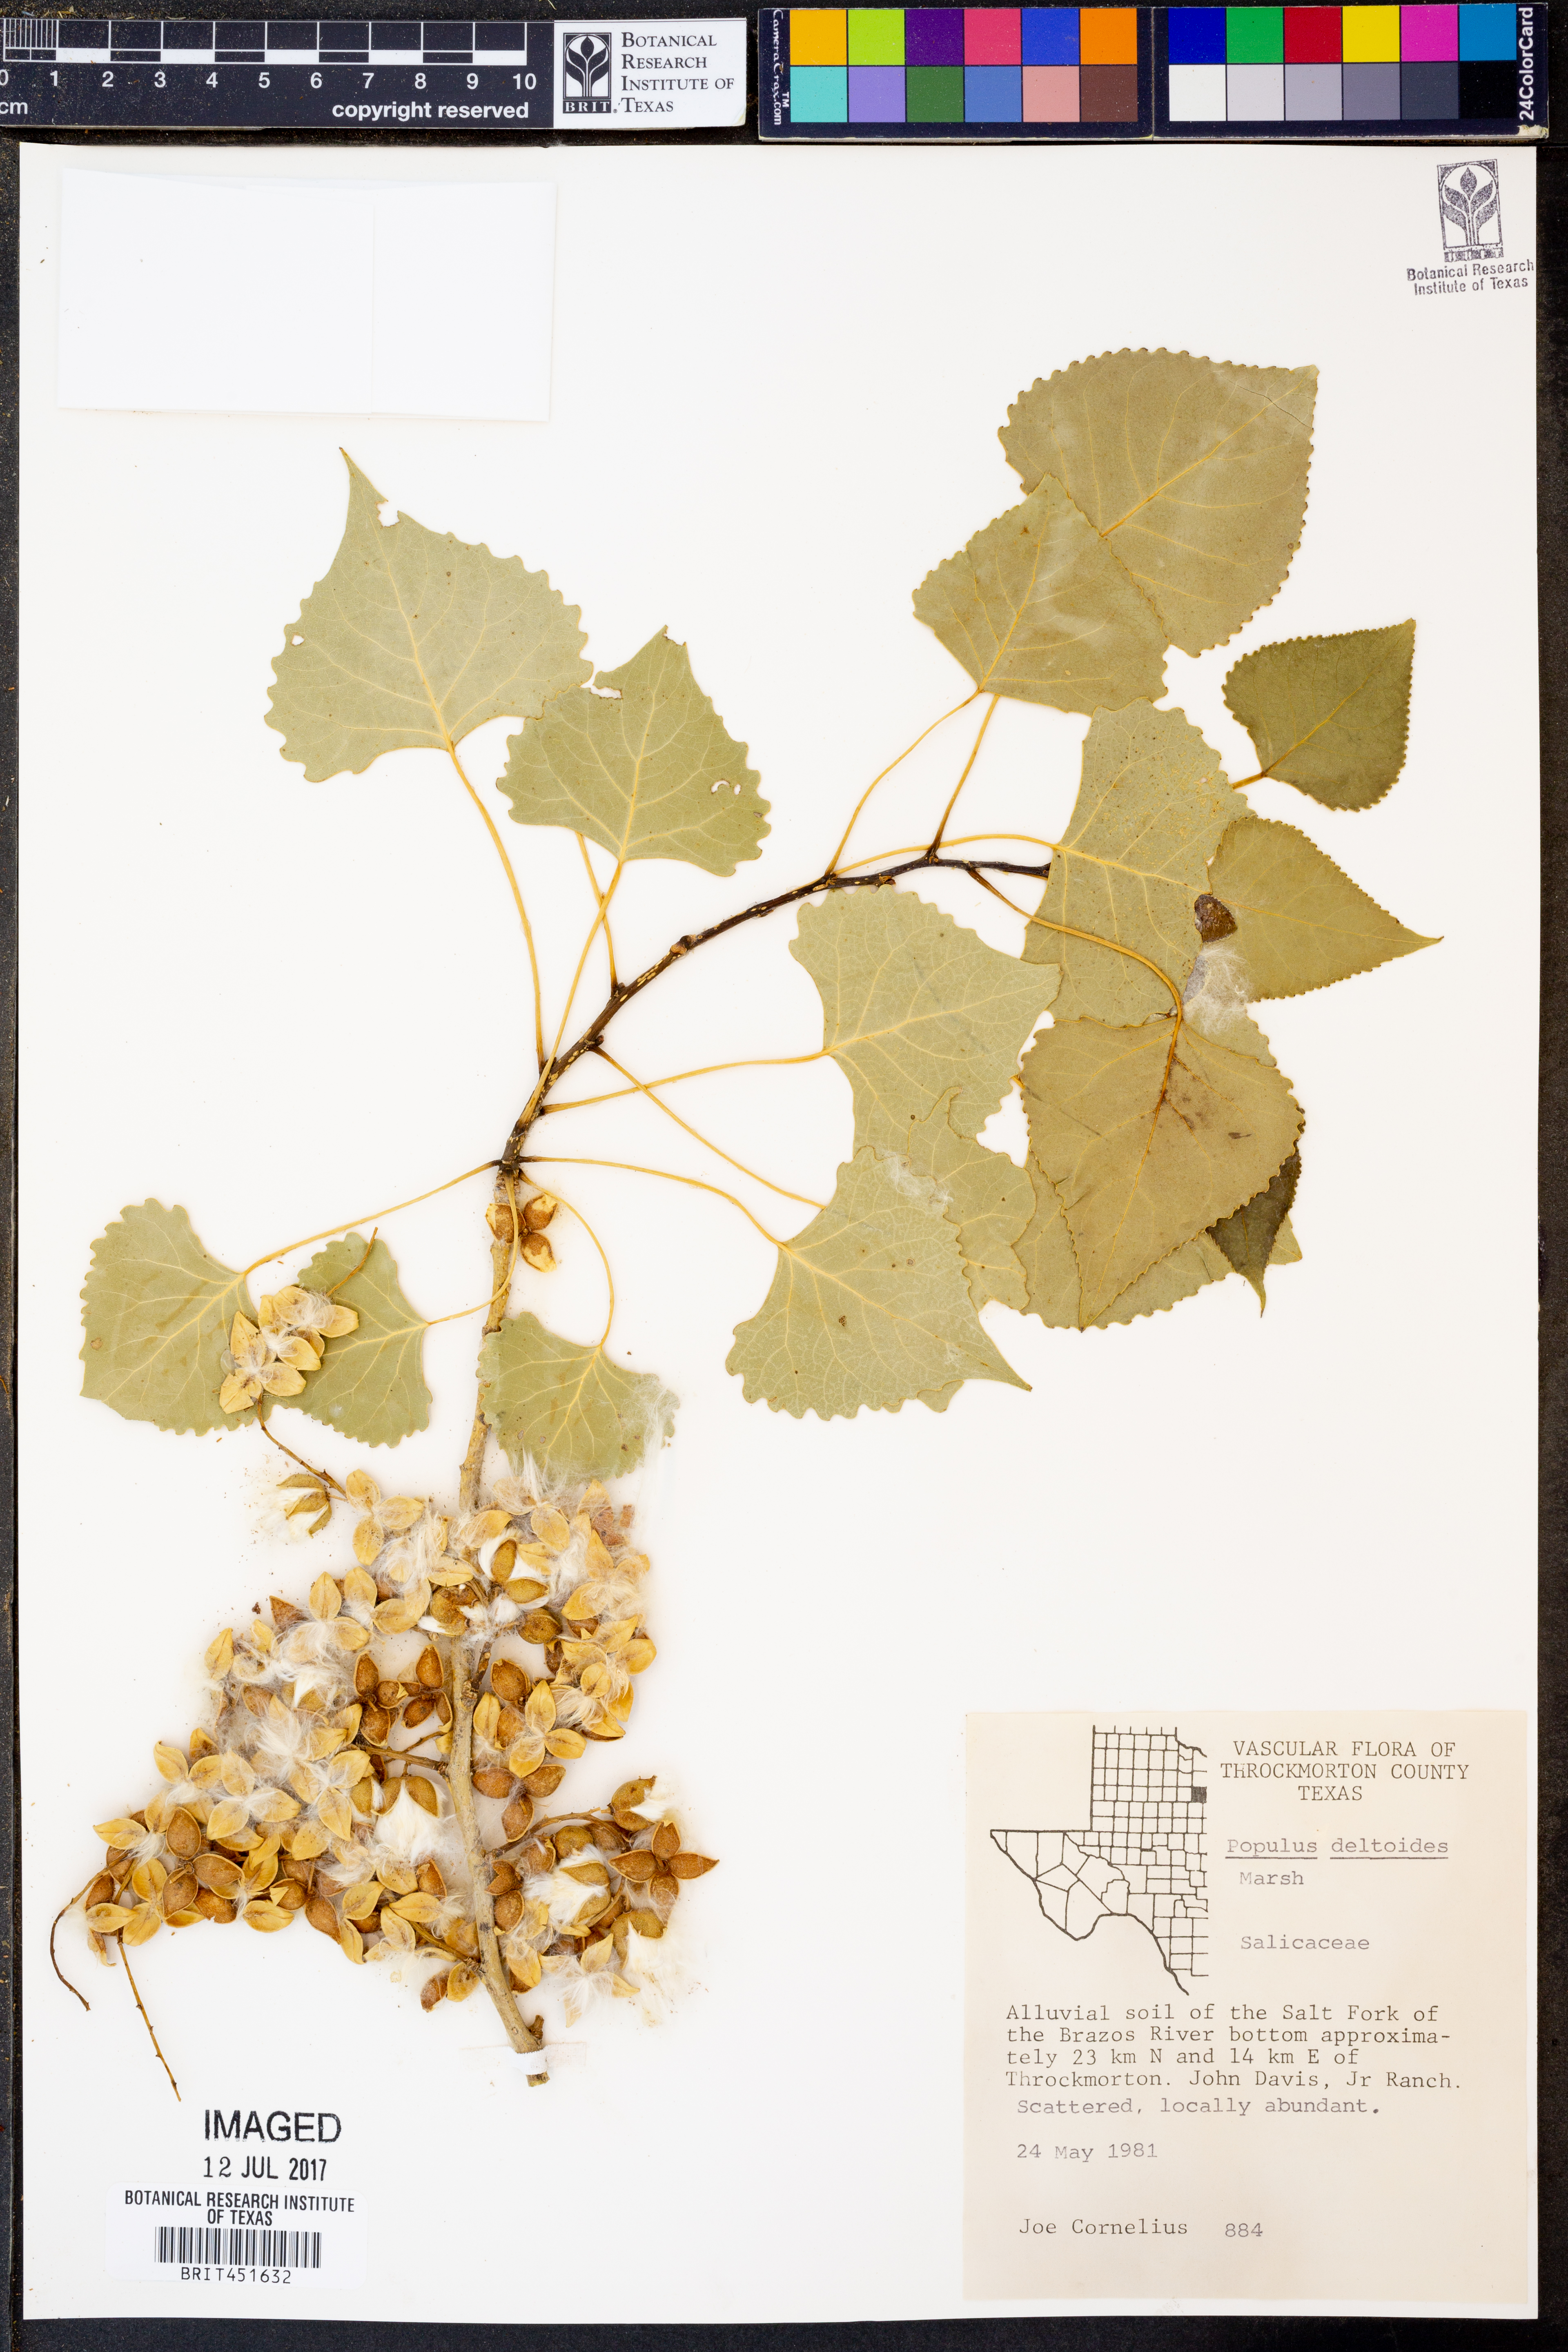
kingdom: Plantae
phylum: Tracheophyta
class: Magnoliopsida
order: Malpighiales
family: Salicaceae
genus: Populus
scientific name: Populus deltoides
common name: Eastern cottonwood
